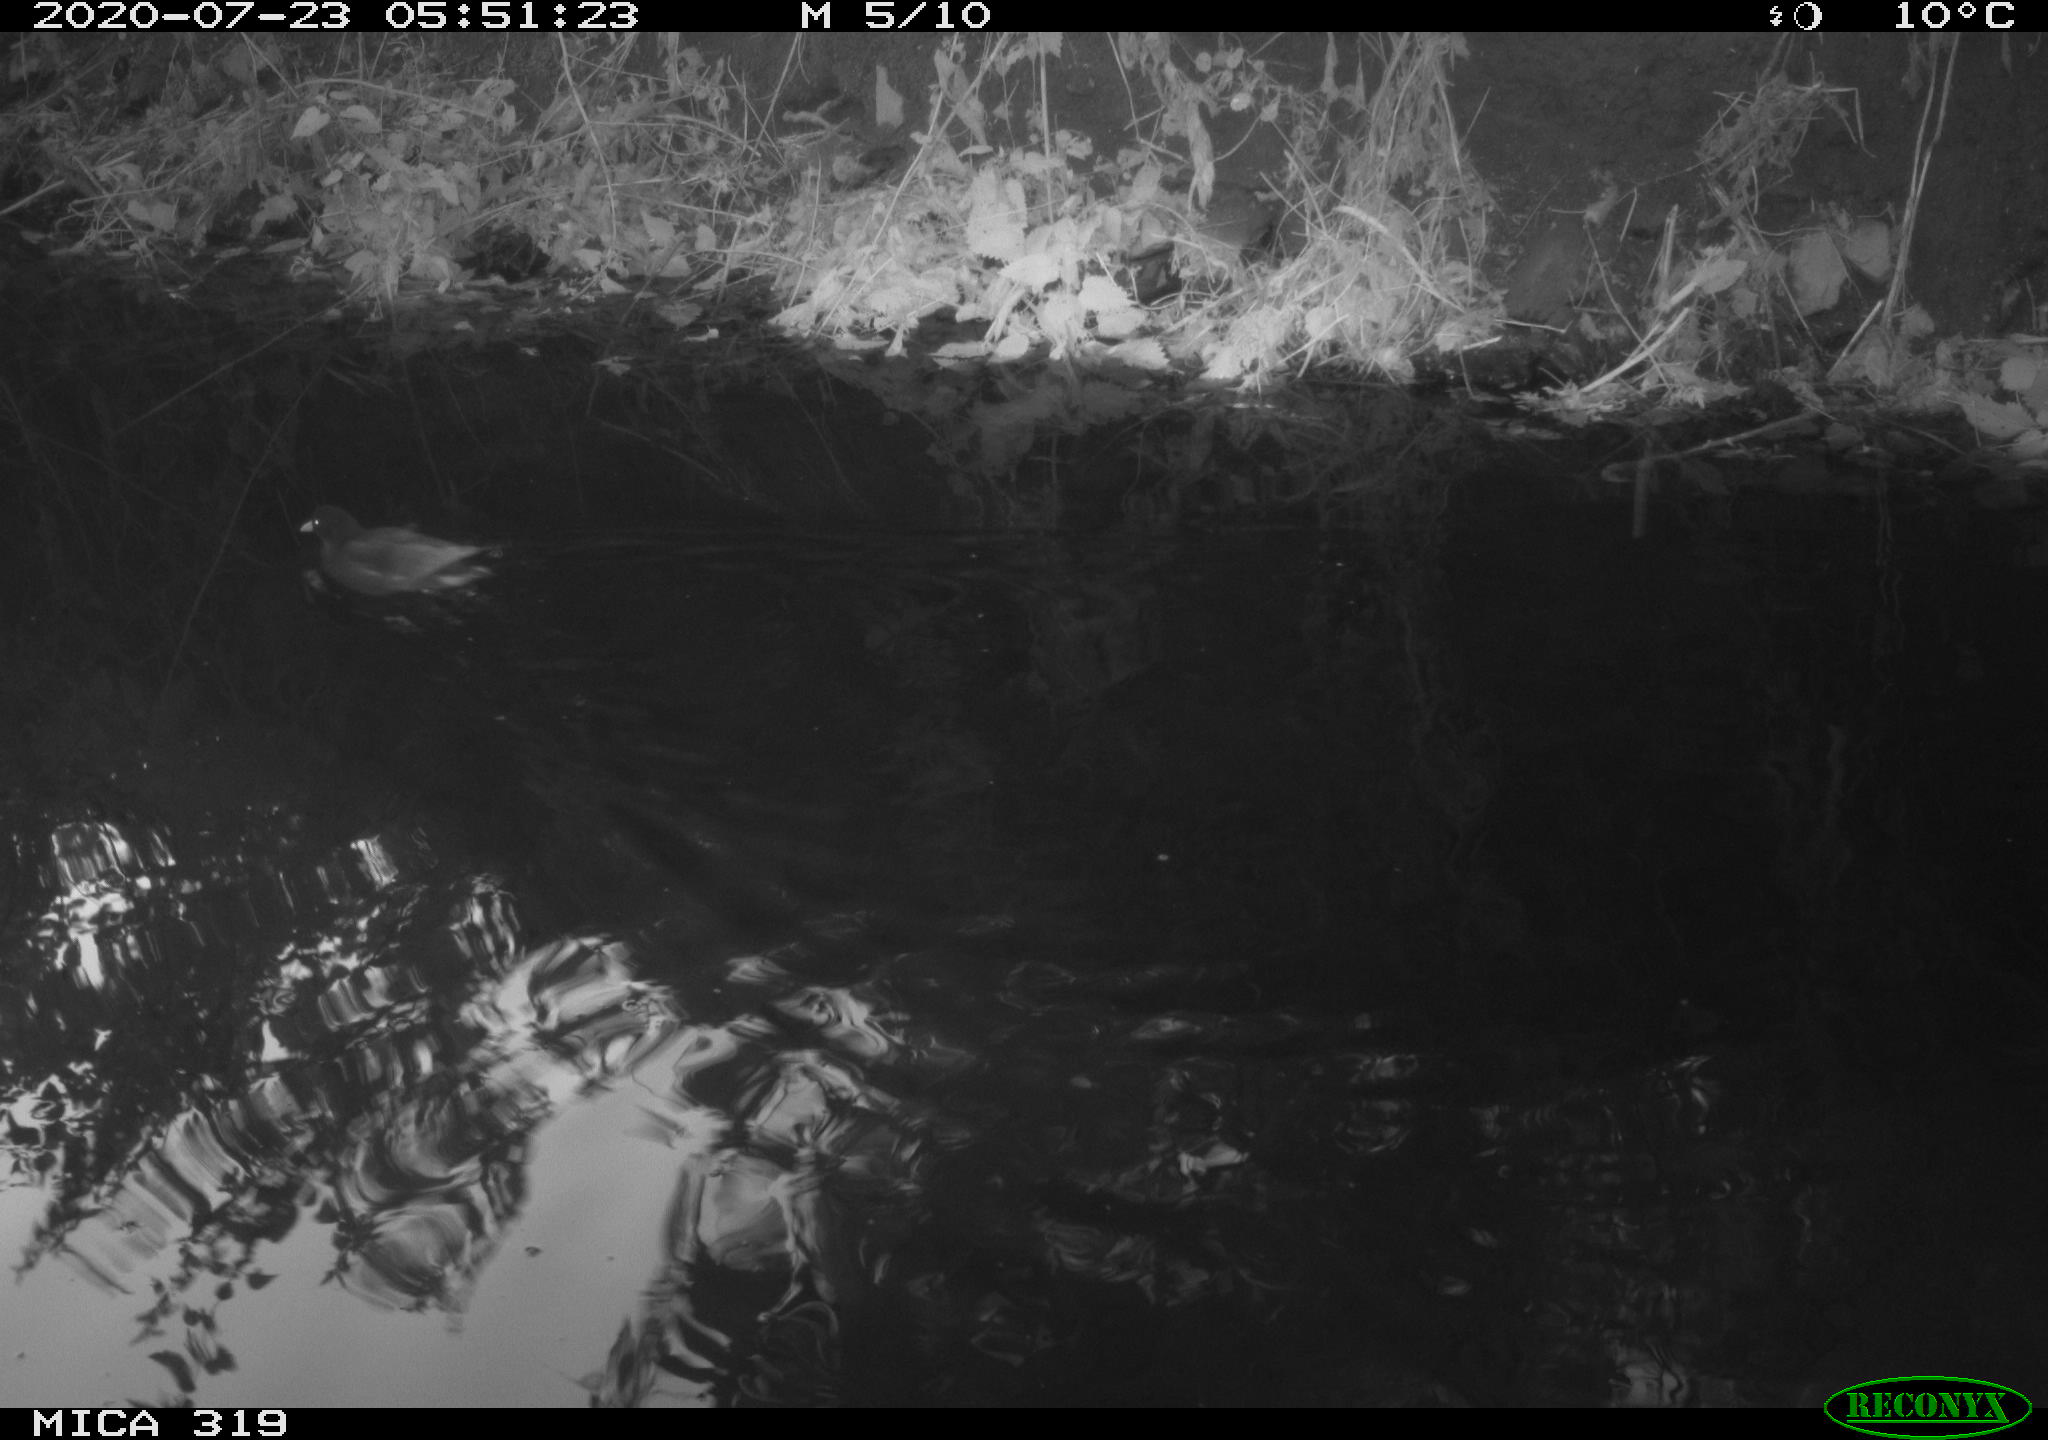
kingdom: Animalia
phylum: Chordata
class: Aves
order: Gruiformes
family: Rallidae
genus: Gallinula
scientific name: Gallinula chloropus
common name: Common moorhen
